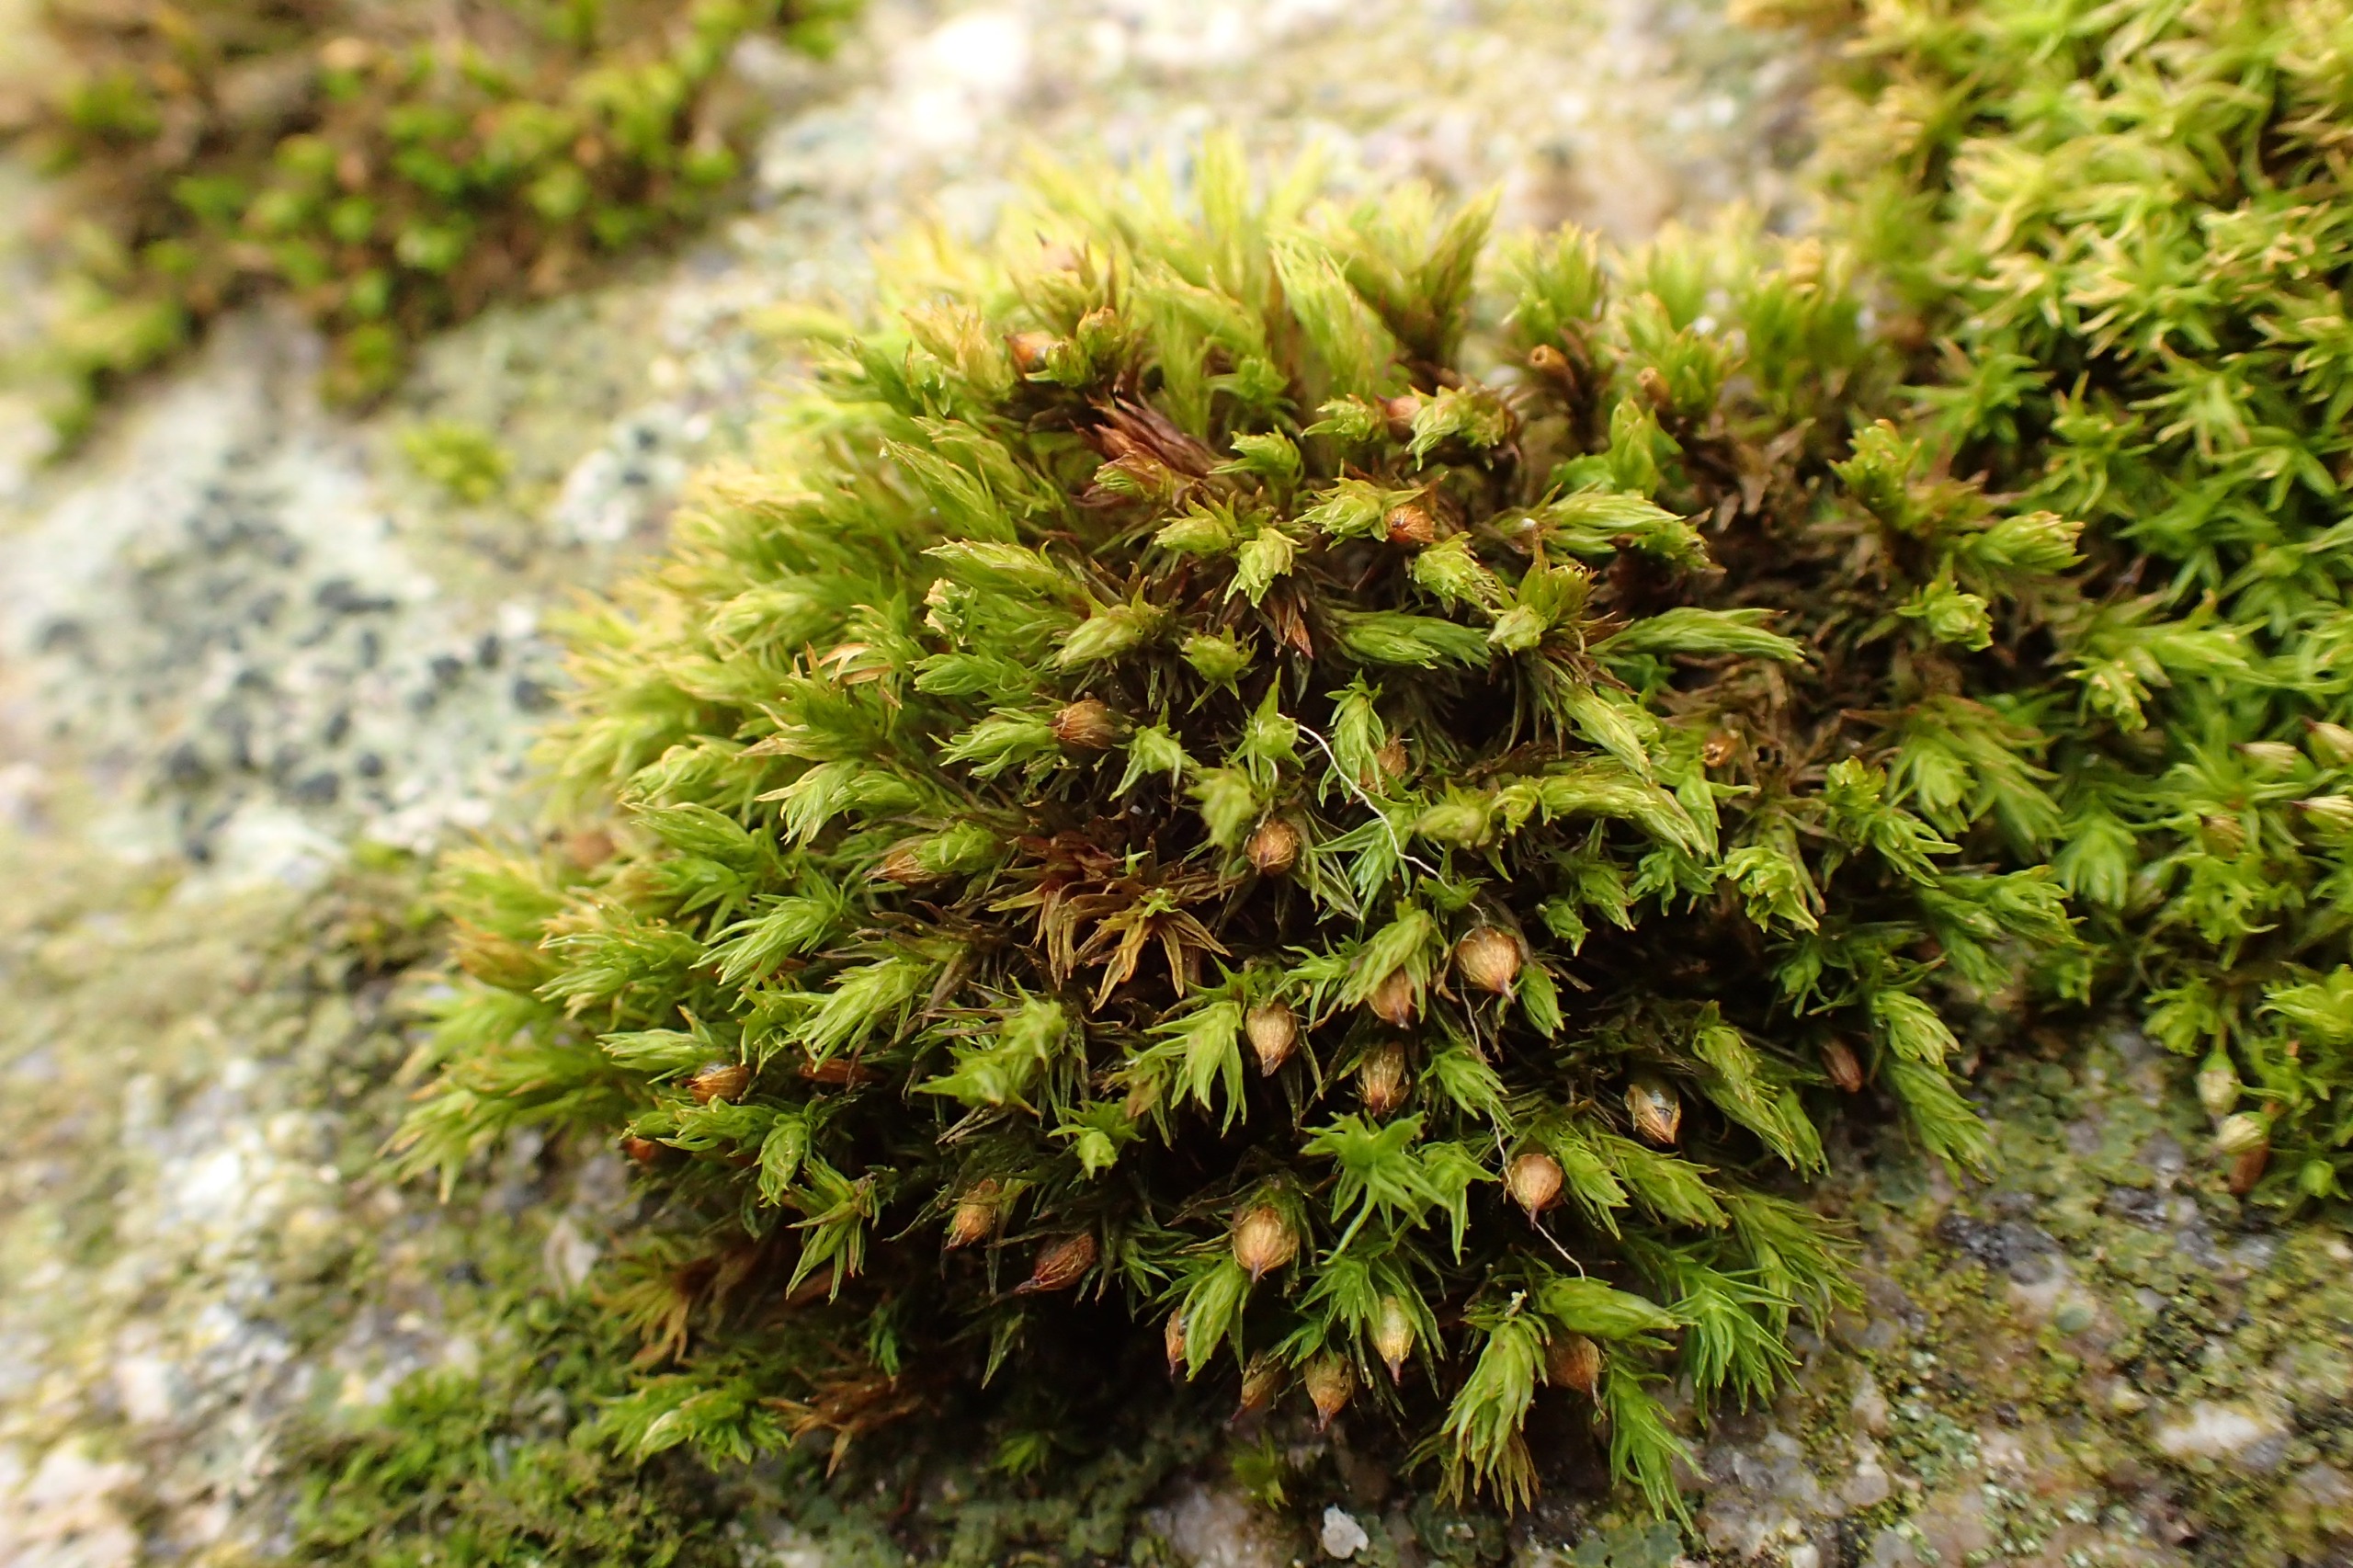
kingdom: Plantae
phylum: Bryophyta
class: Bryopsida
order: Orthotrichales
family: Orthotrichaceae
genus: Lewinskya
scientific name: Lewinskya affinis
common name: Almindelig furehætte
